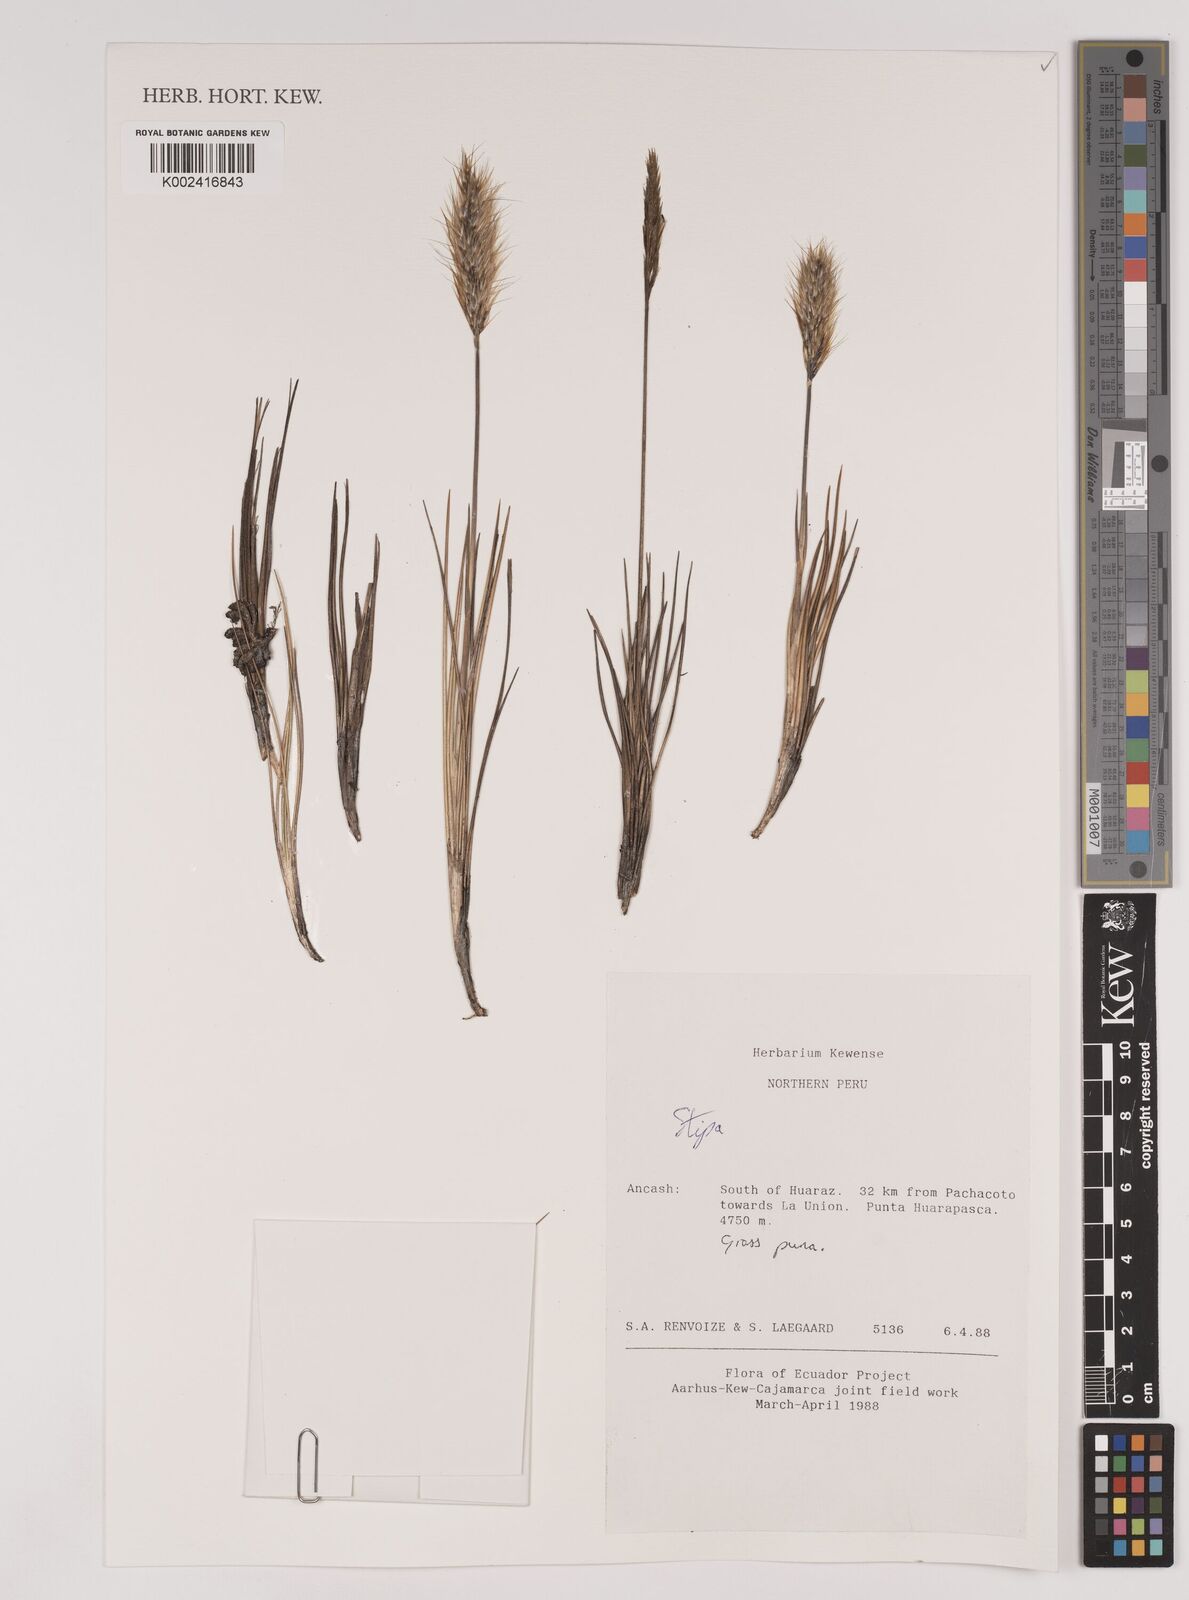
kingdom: Plantae
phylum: Tracheophyta
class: Liliopsida
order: Poales
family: Poaceae
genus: Stipa
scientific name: Stipa
